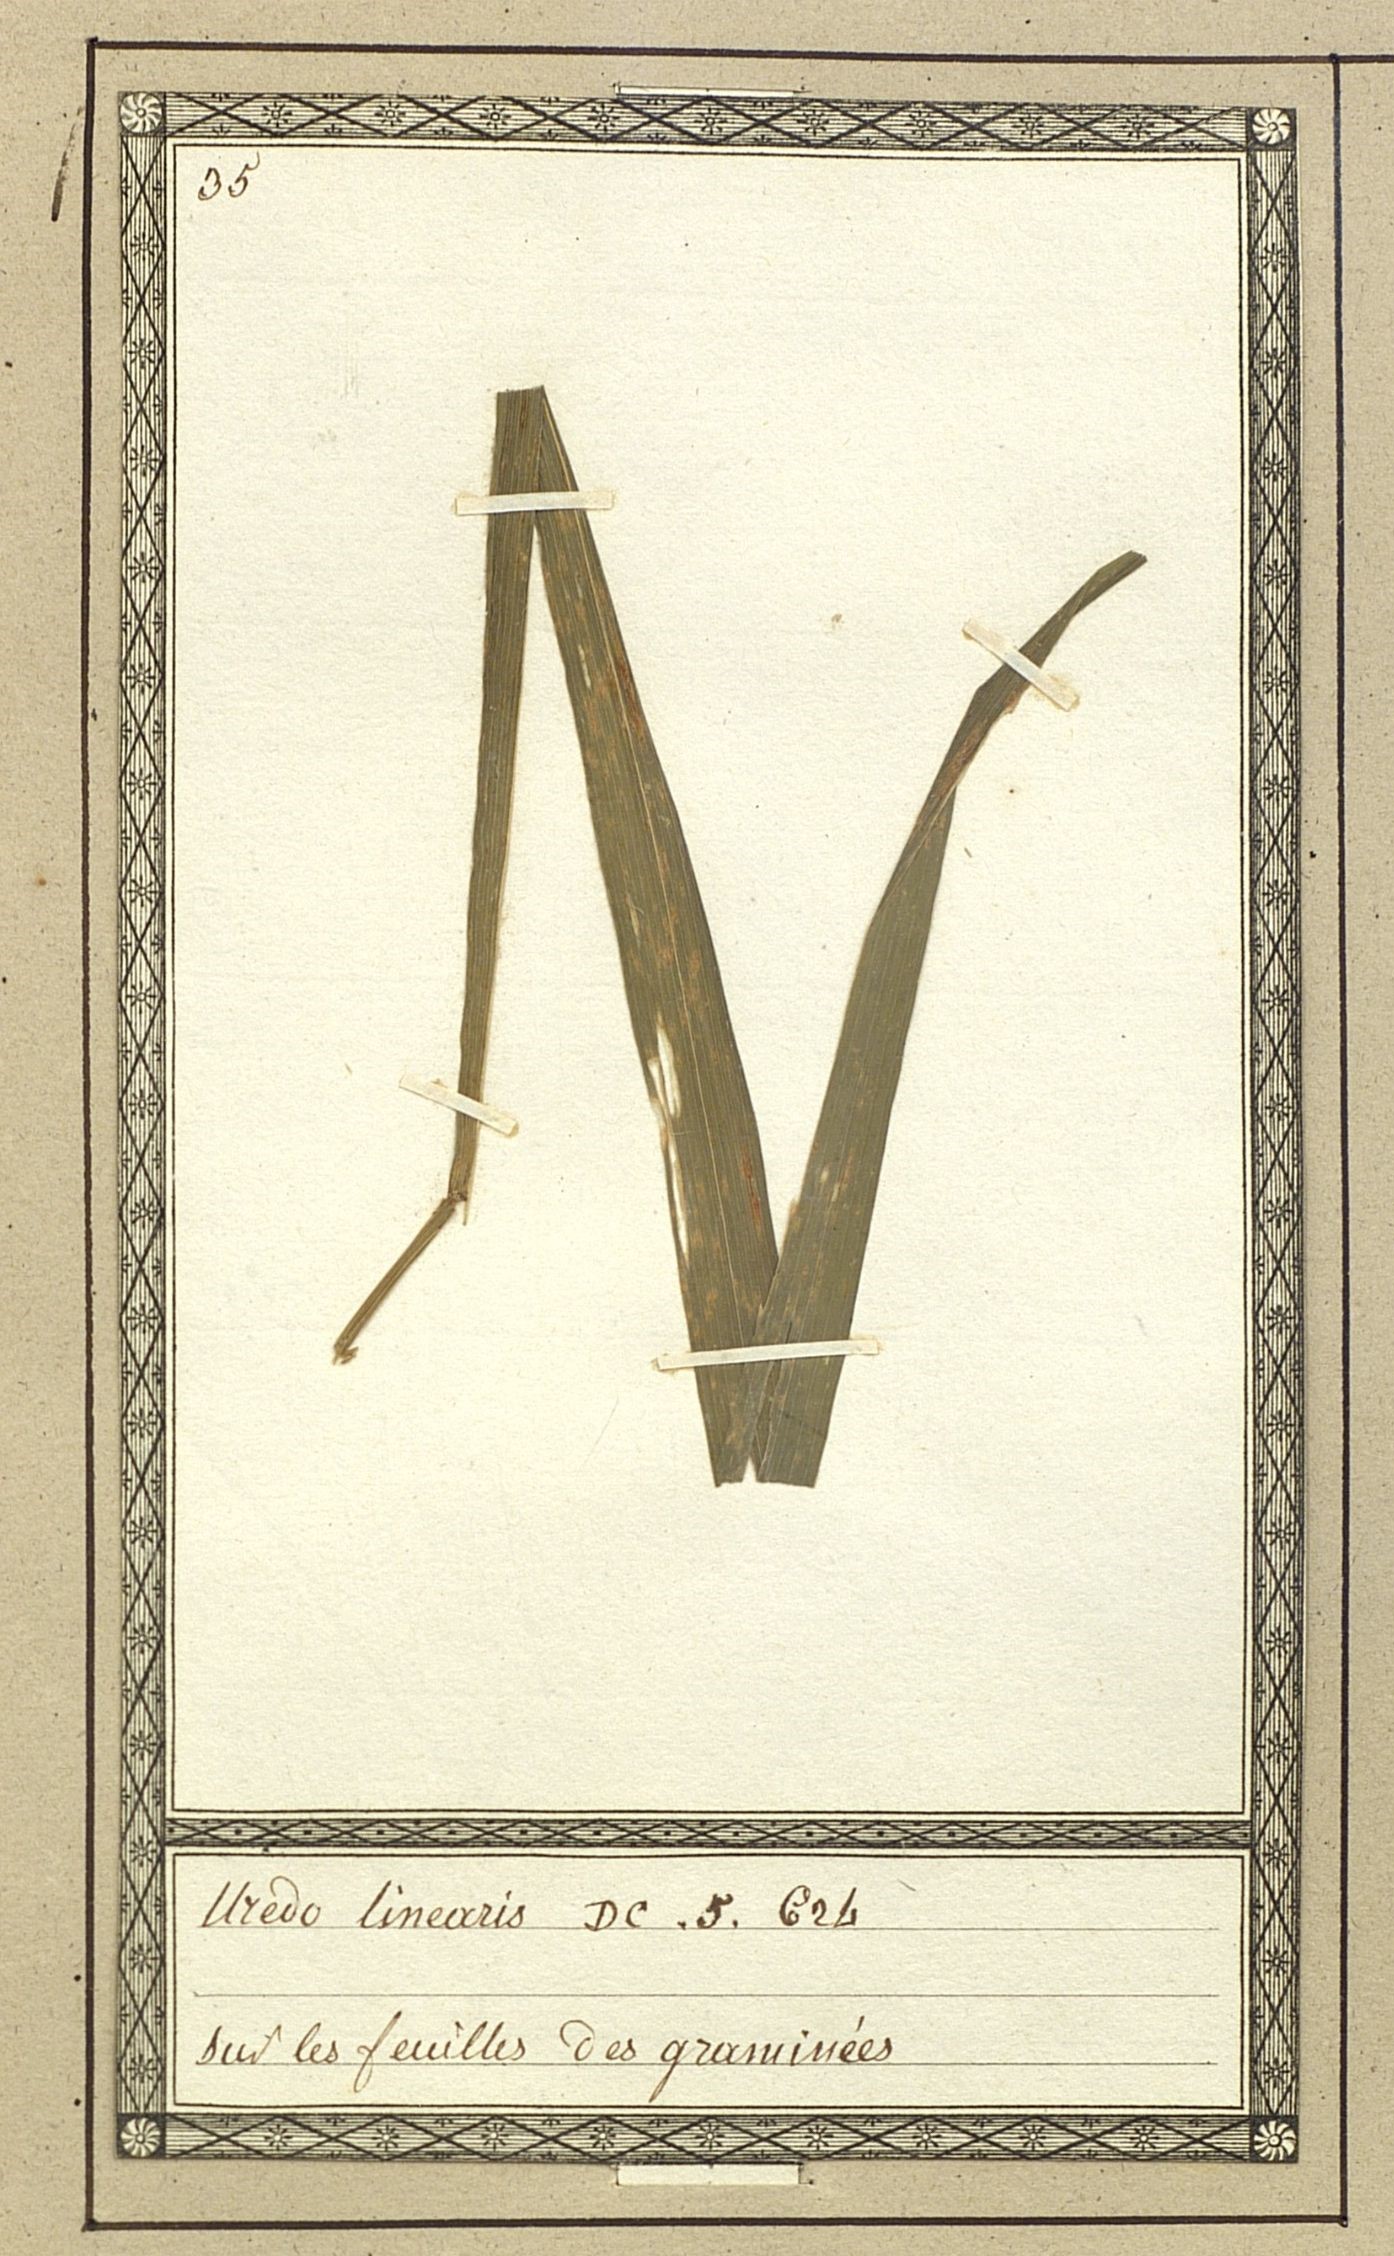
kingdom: Fungi
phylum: Basidiomycota
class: Pucciniomycetes
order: Pucciniales
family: Pucciniaceae
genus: Puccinia
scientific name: Puccinia graminis
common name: Black stem rust
